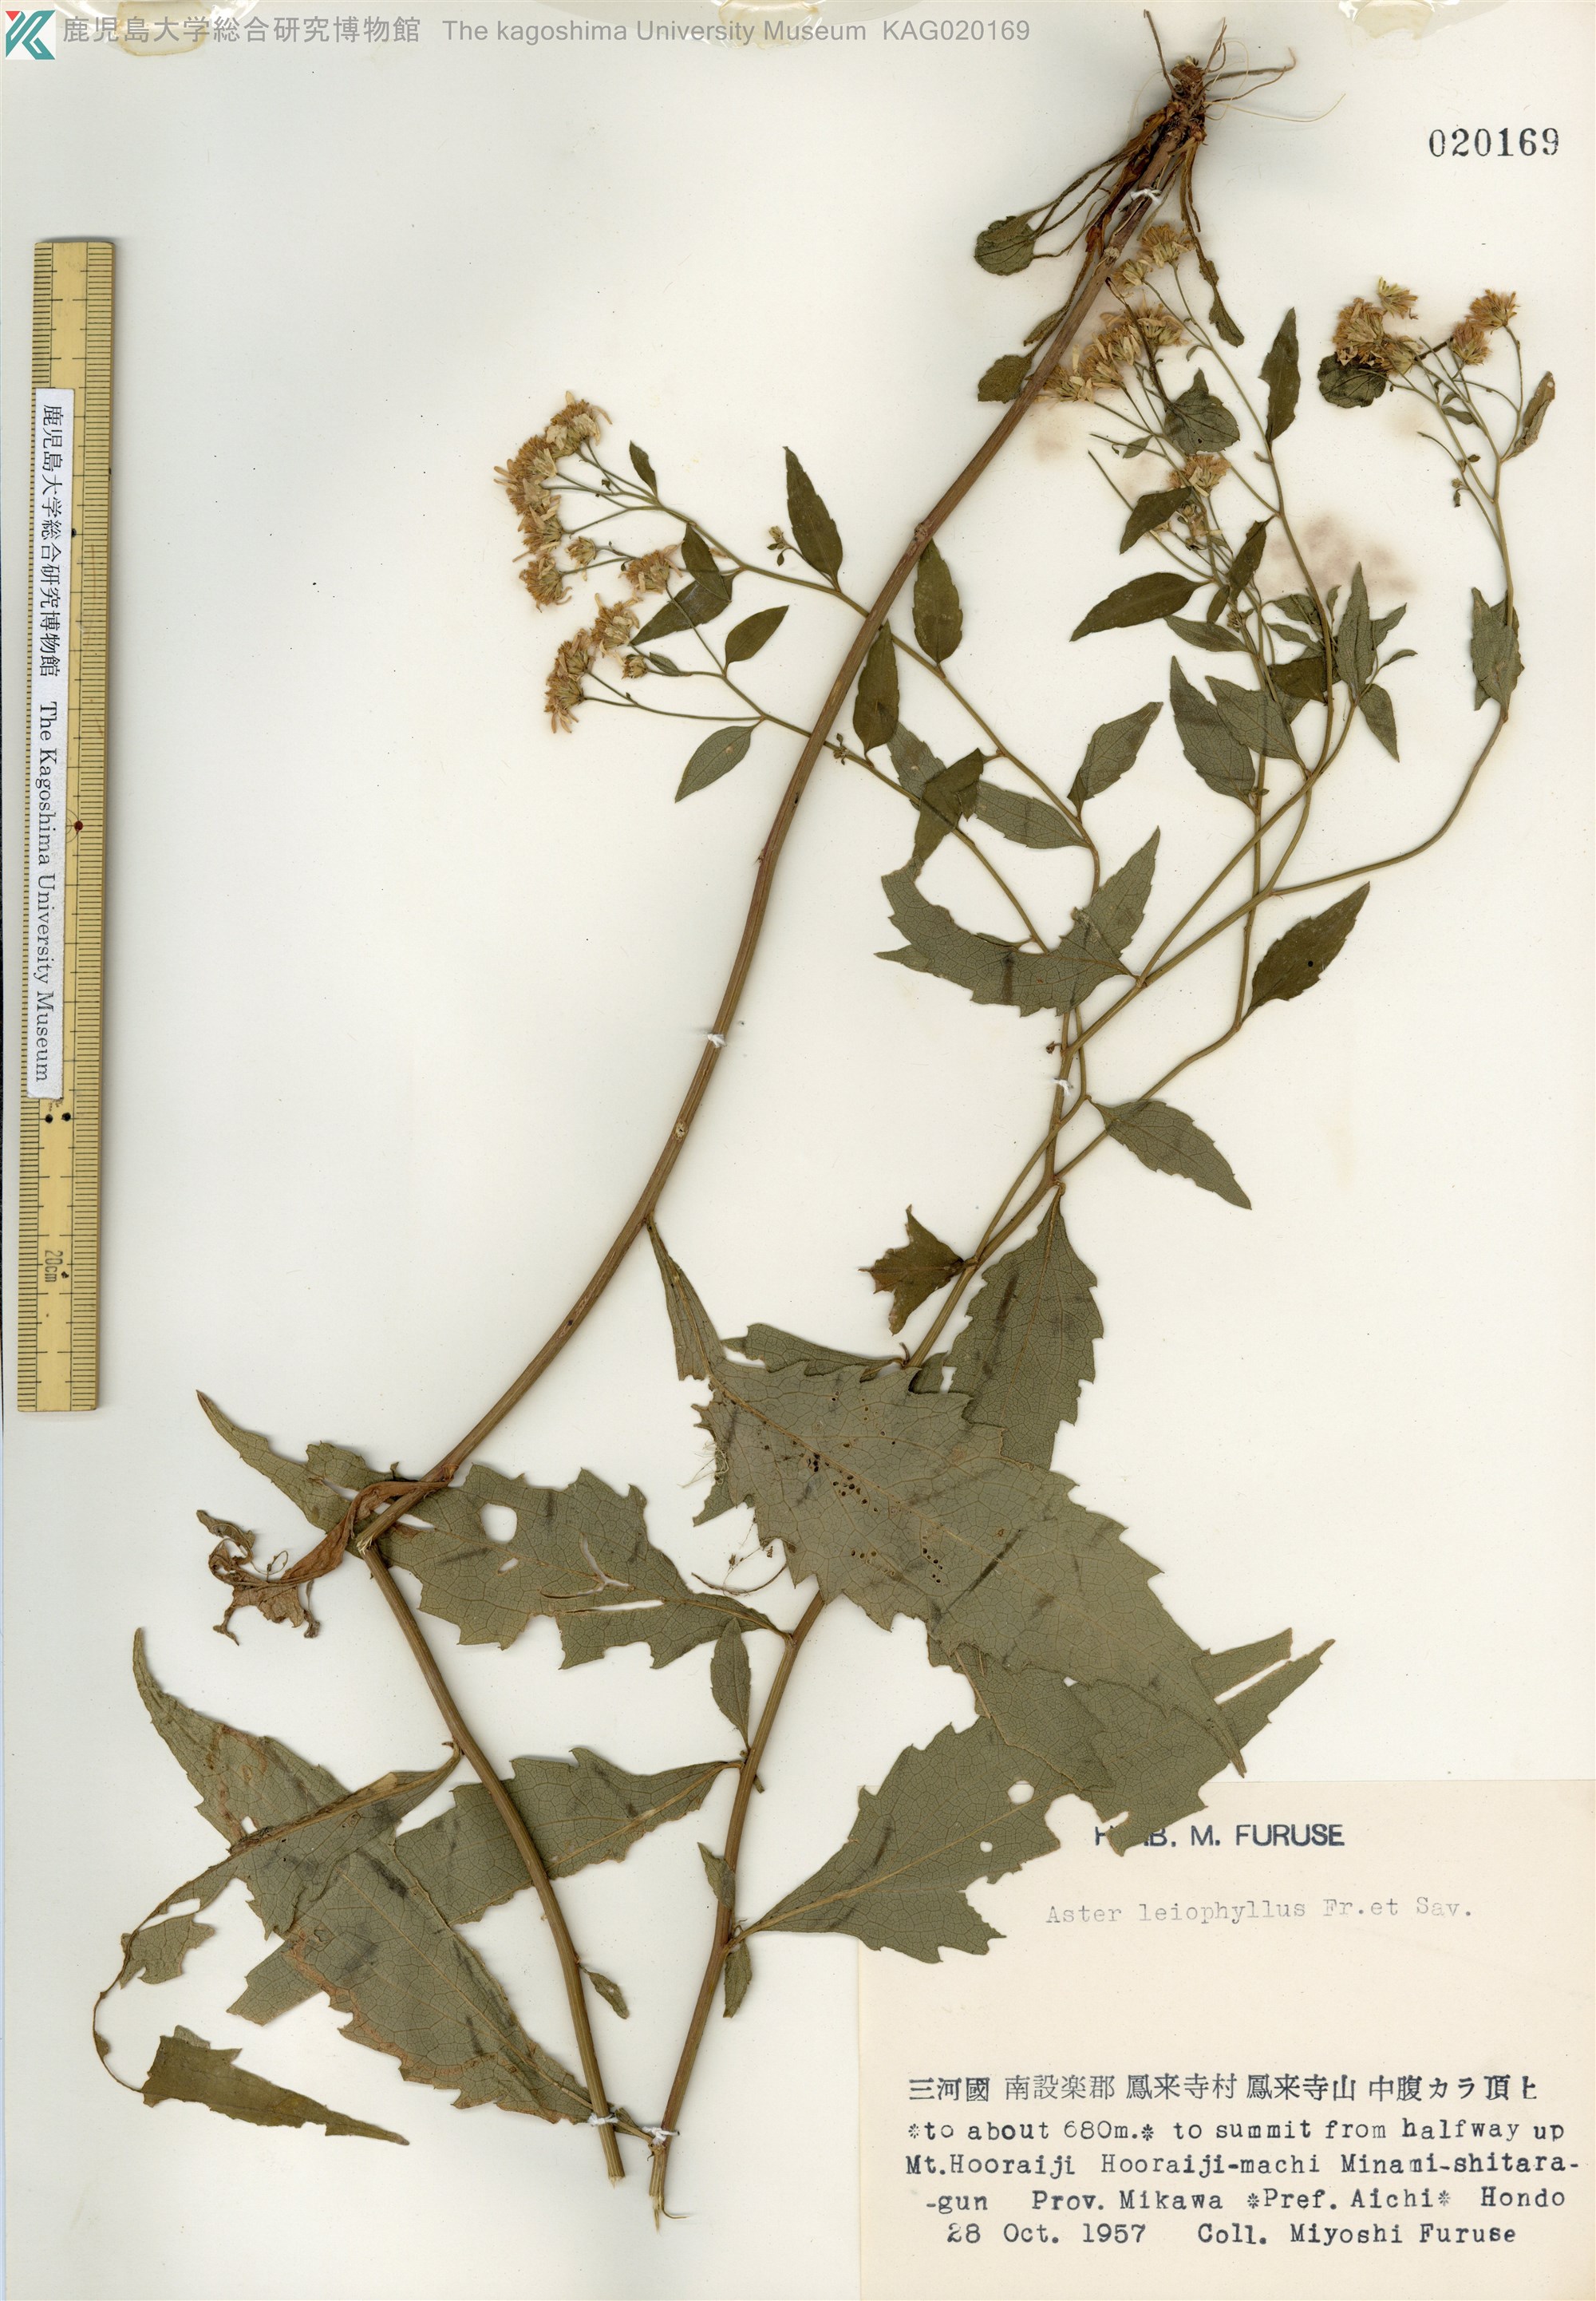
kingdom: Plantae
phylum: Tracheophyta
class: Magnoliopsida
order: Asterales
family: Asteraceae
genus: Aster
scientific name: Aster ageratoides
